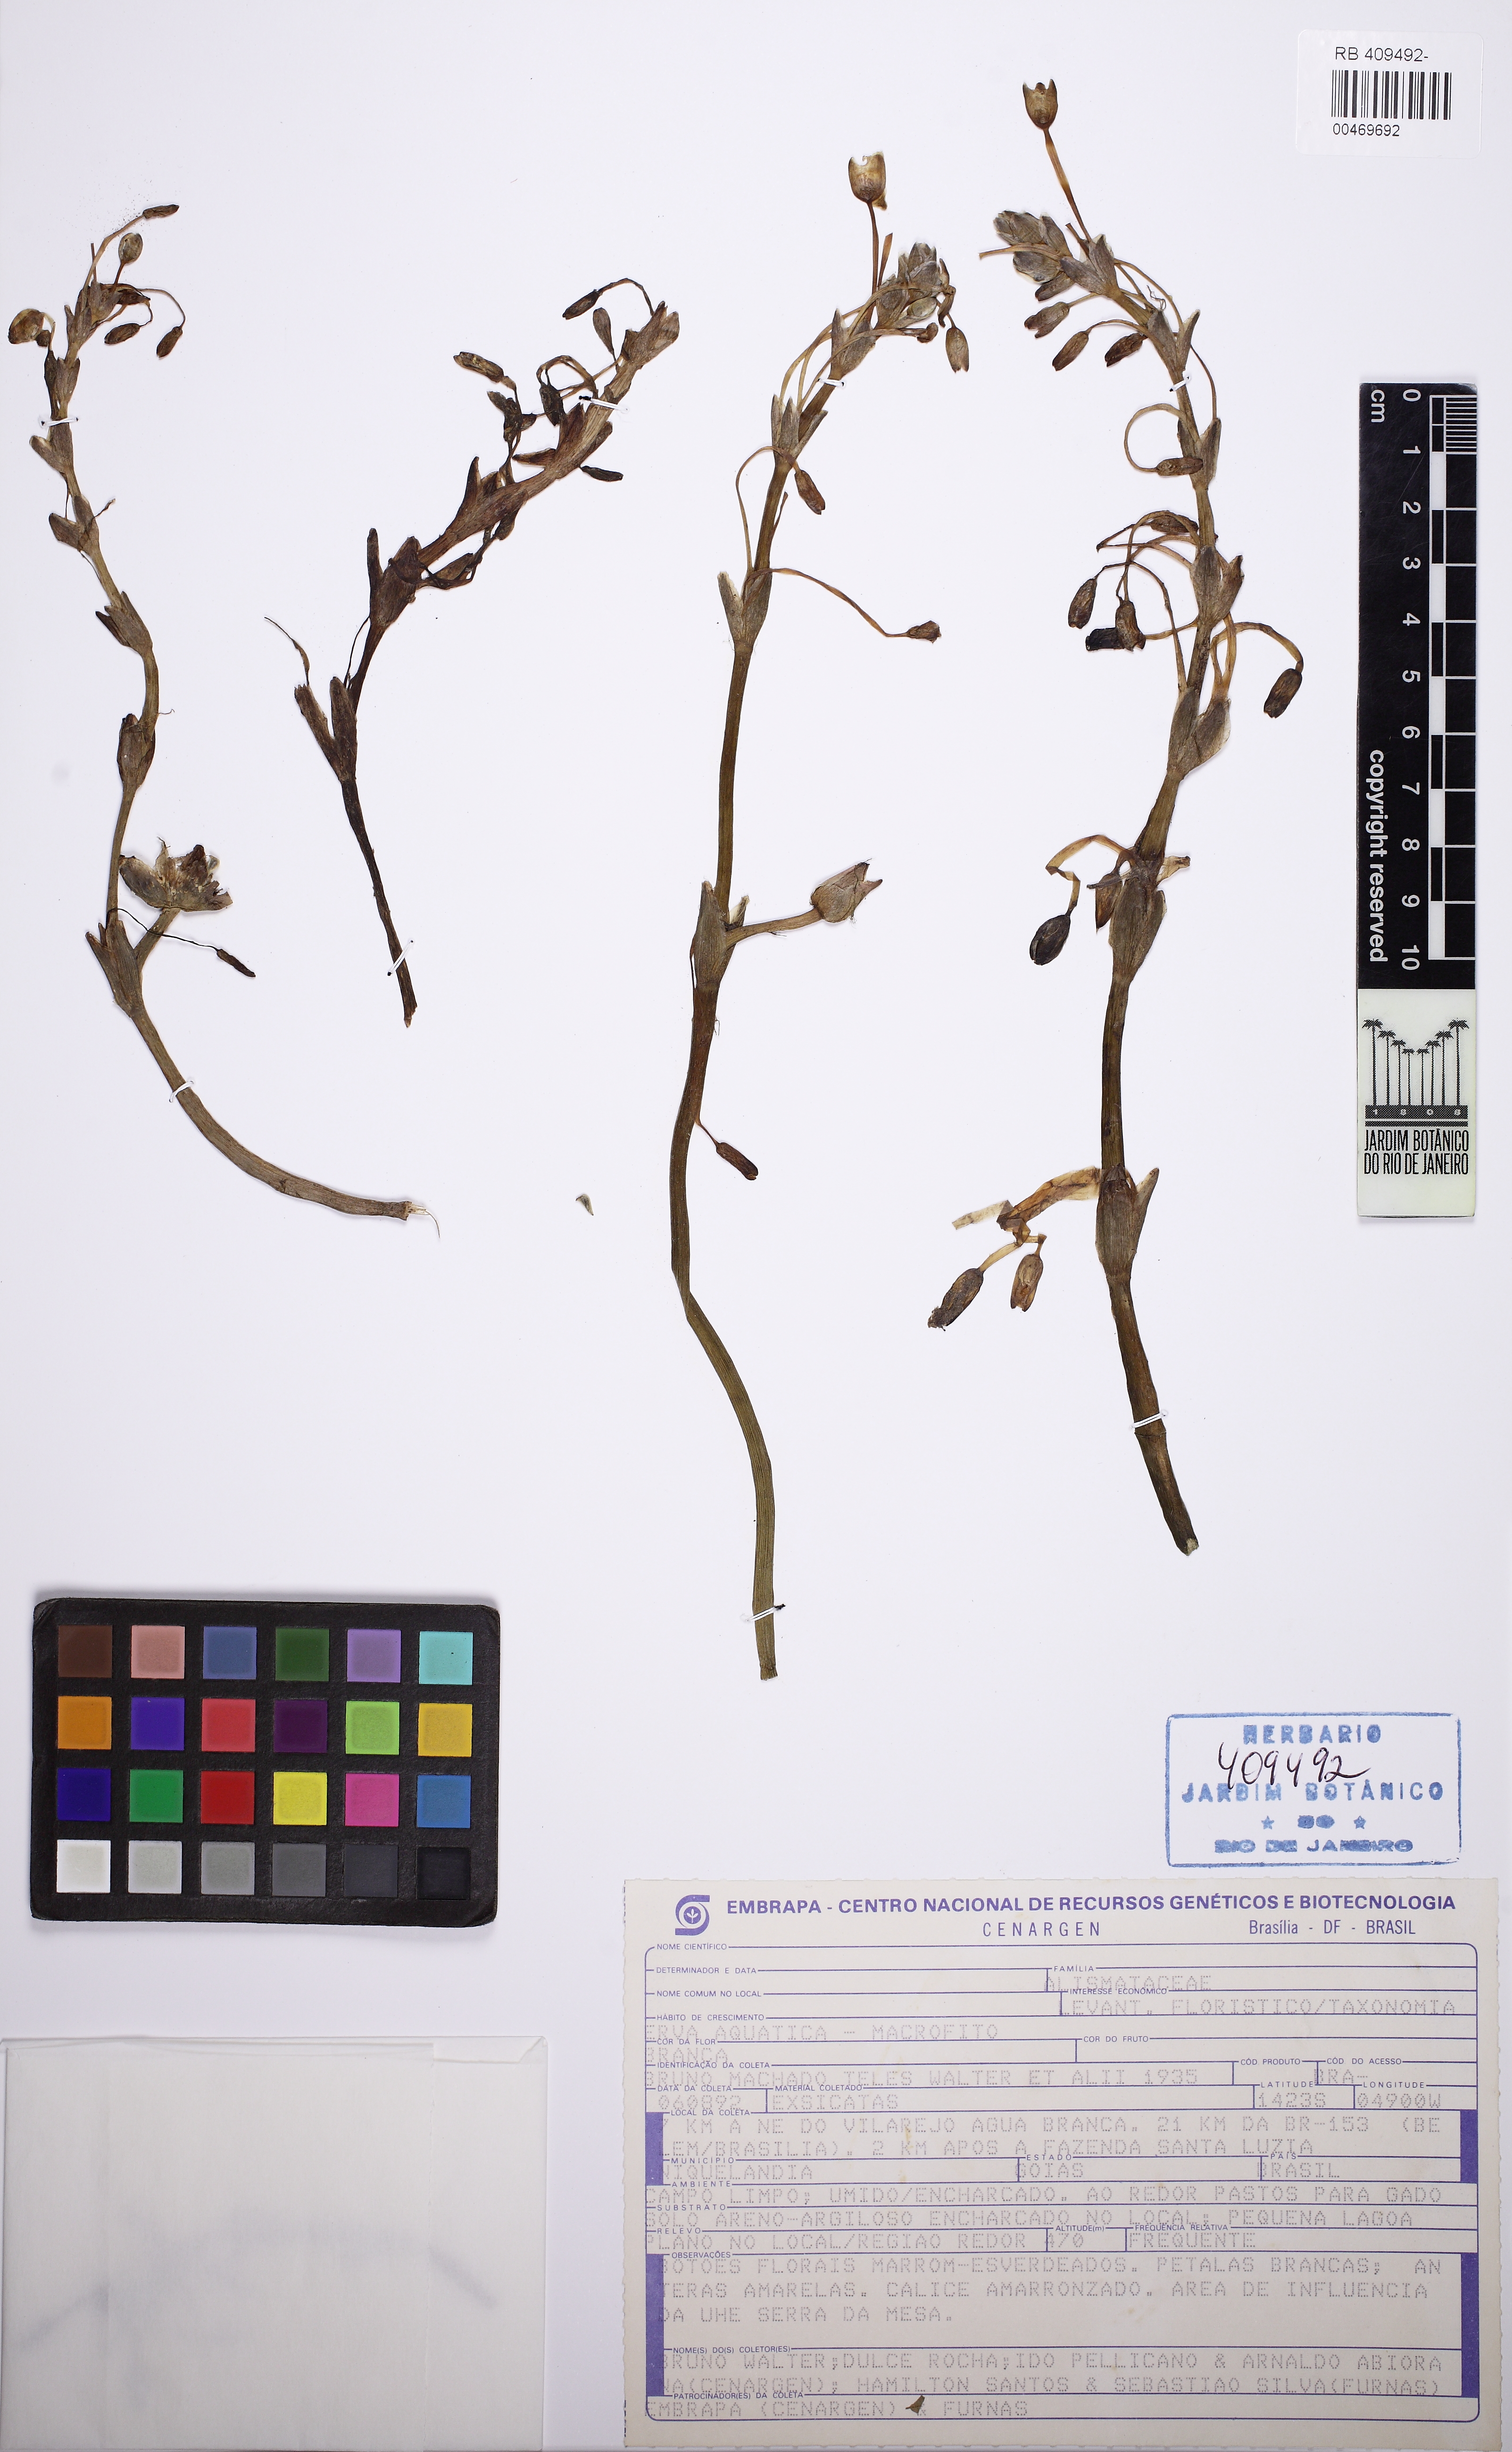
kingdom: Plantae
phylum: Tracheophyta
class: Liliopsida
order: Alismatales
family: Alismataceae
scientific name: Alismataceae
